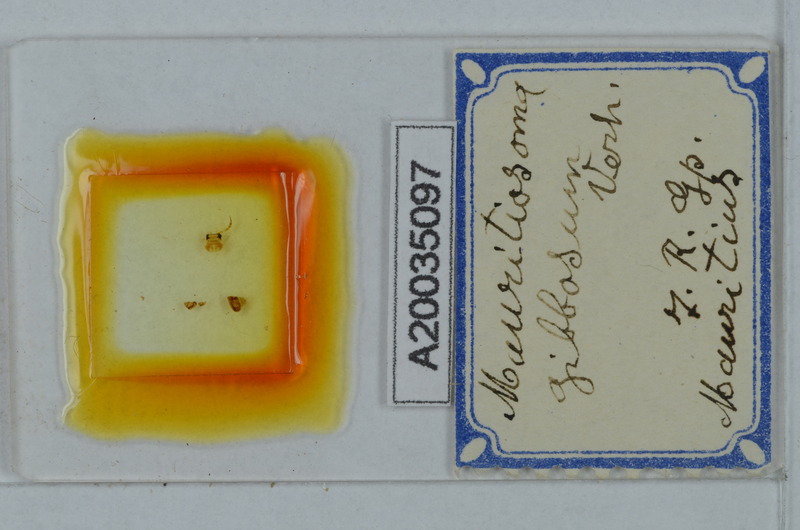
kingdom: Animalia
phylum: Arthropoda
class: Diplopoda
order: Polydesmida
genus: Mauritiosoma
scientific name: Mauritiosoma gibbosum
